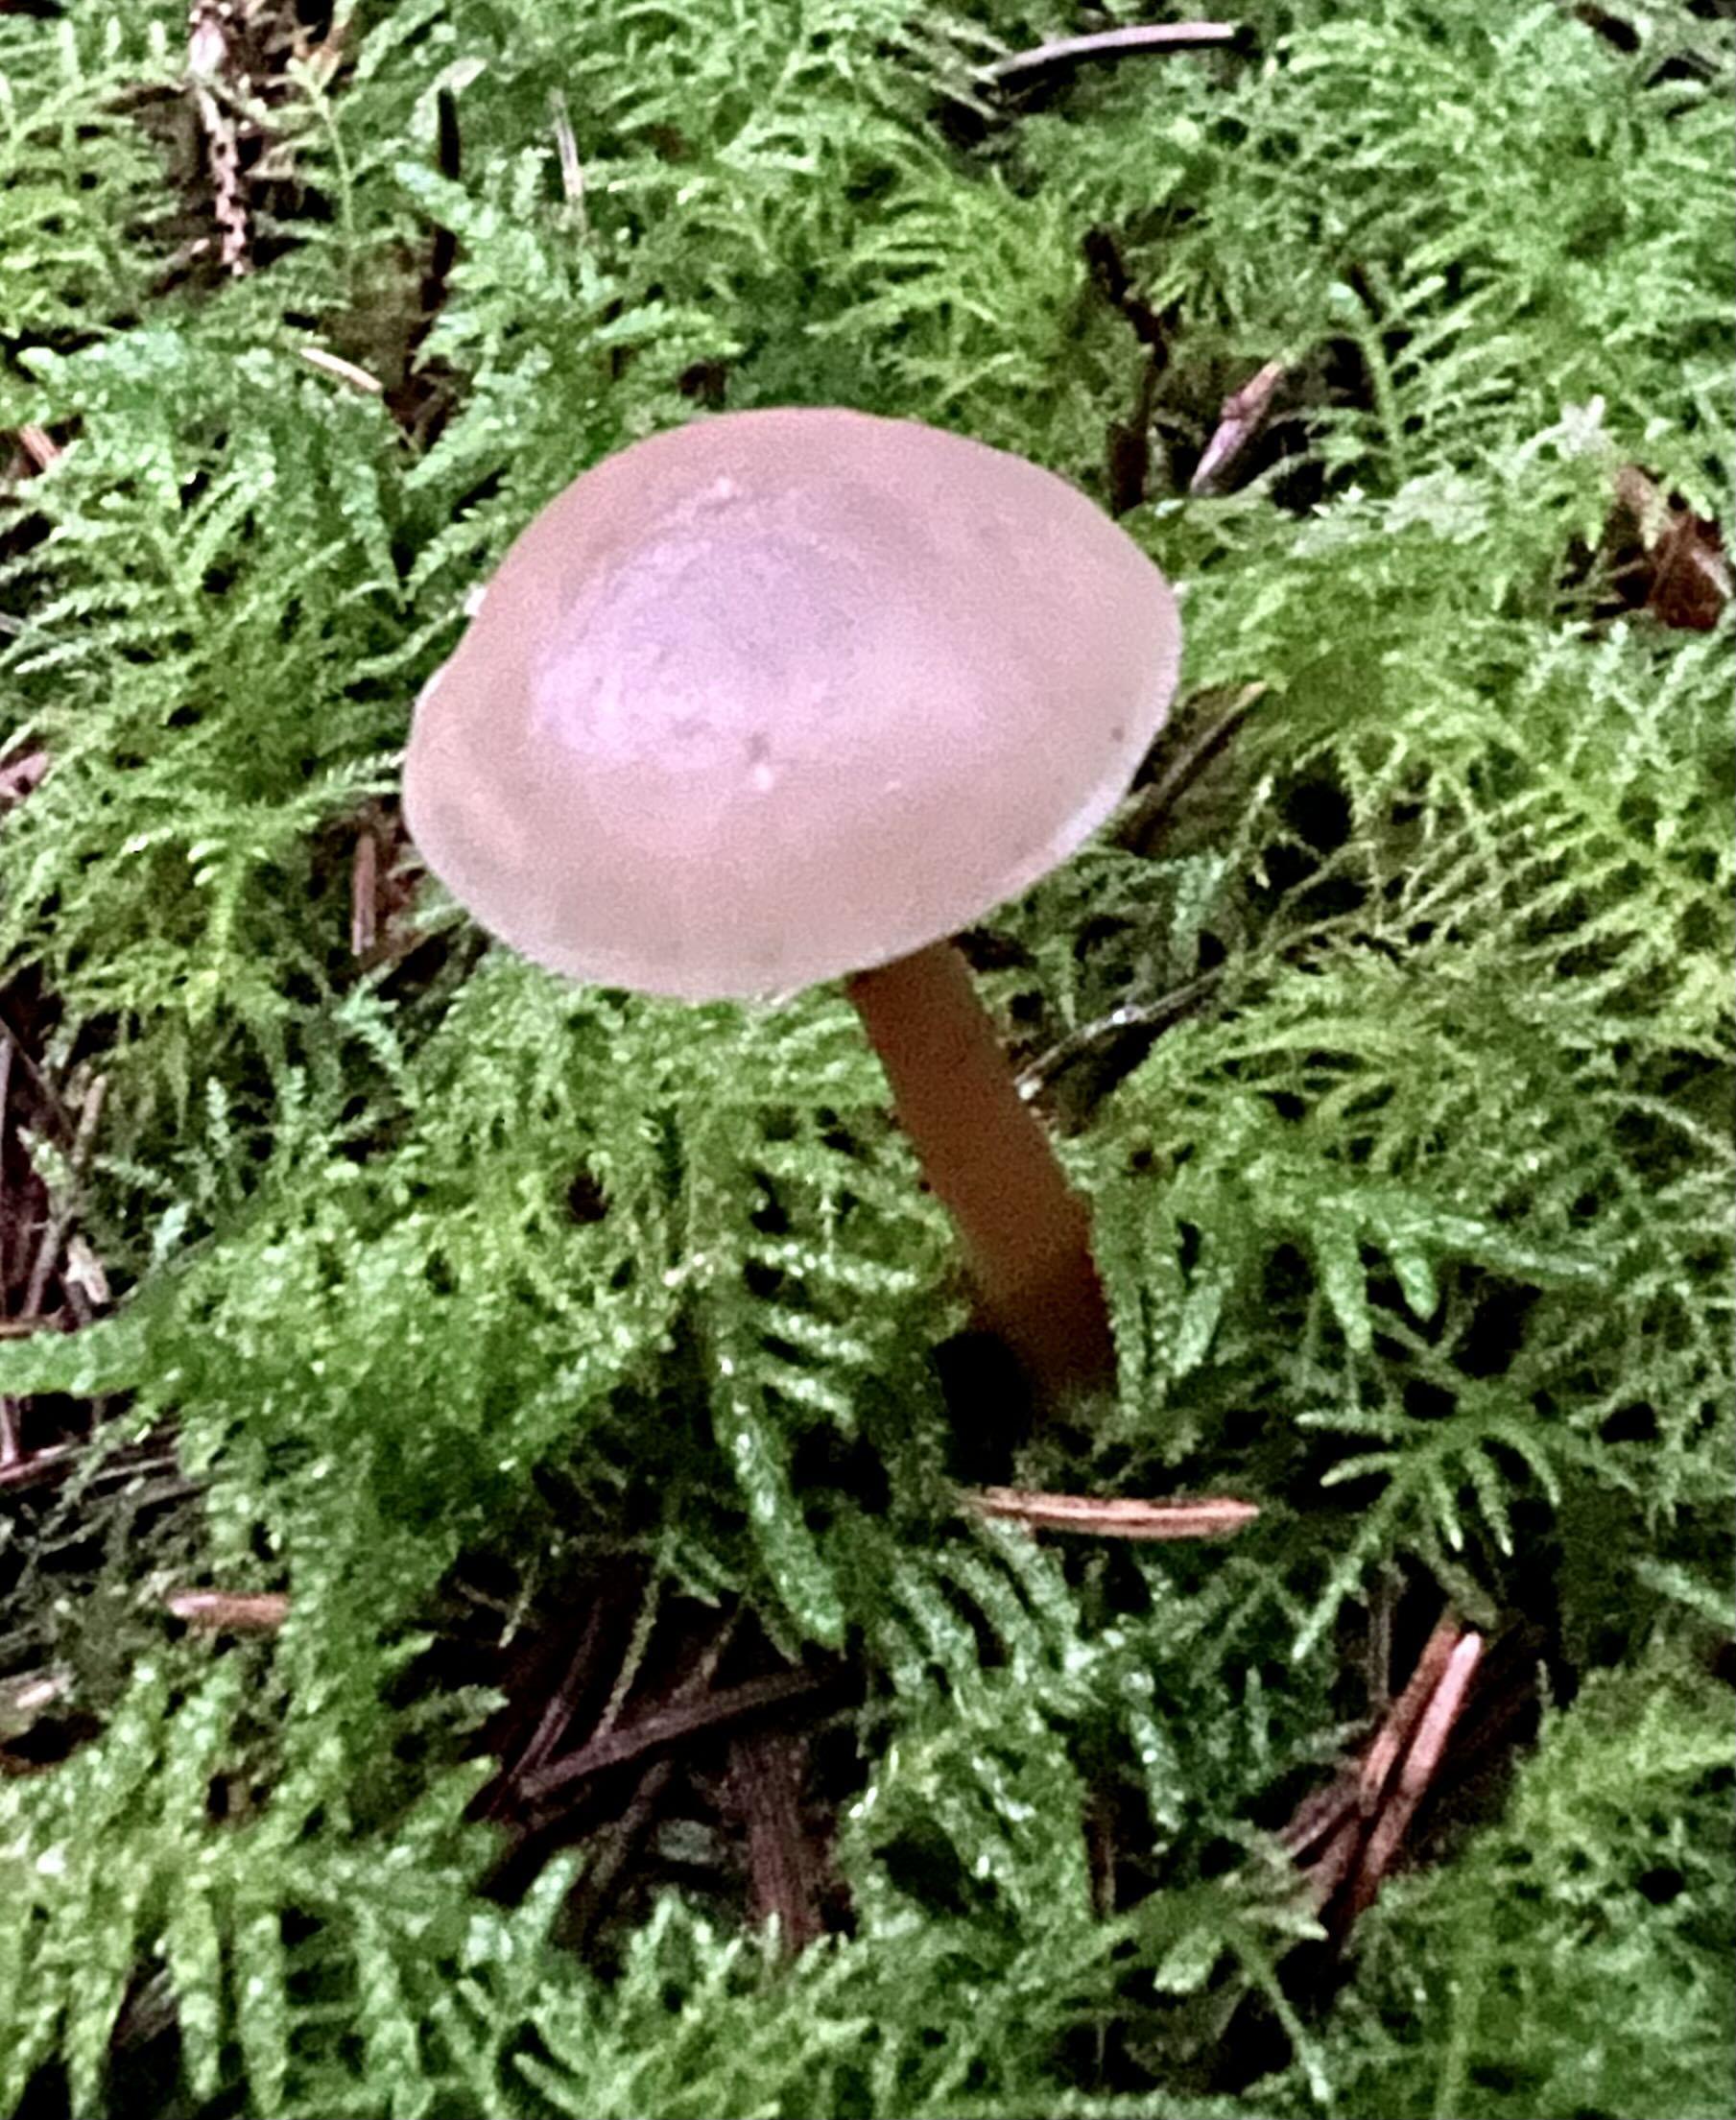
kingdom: Fungi
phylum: Basidiomycota
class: Agaricomycetes
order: Agaricales
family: Tricholomataceae
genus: Clitocybe
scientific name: Clitocybe fragrans
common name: vellugtende tragthat
